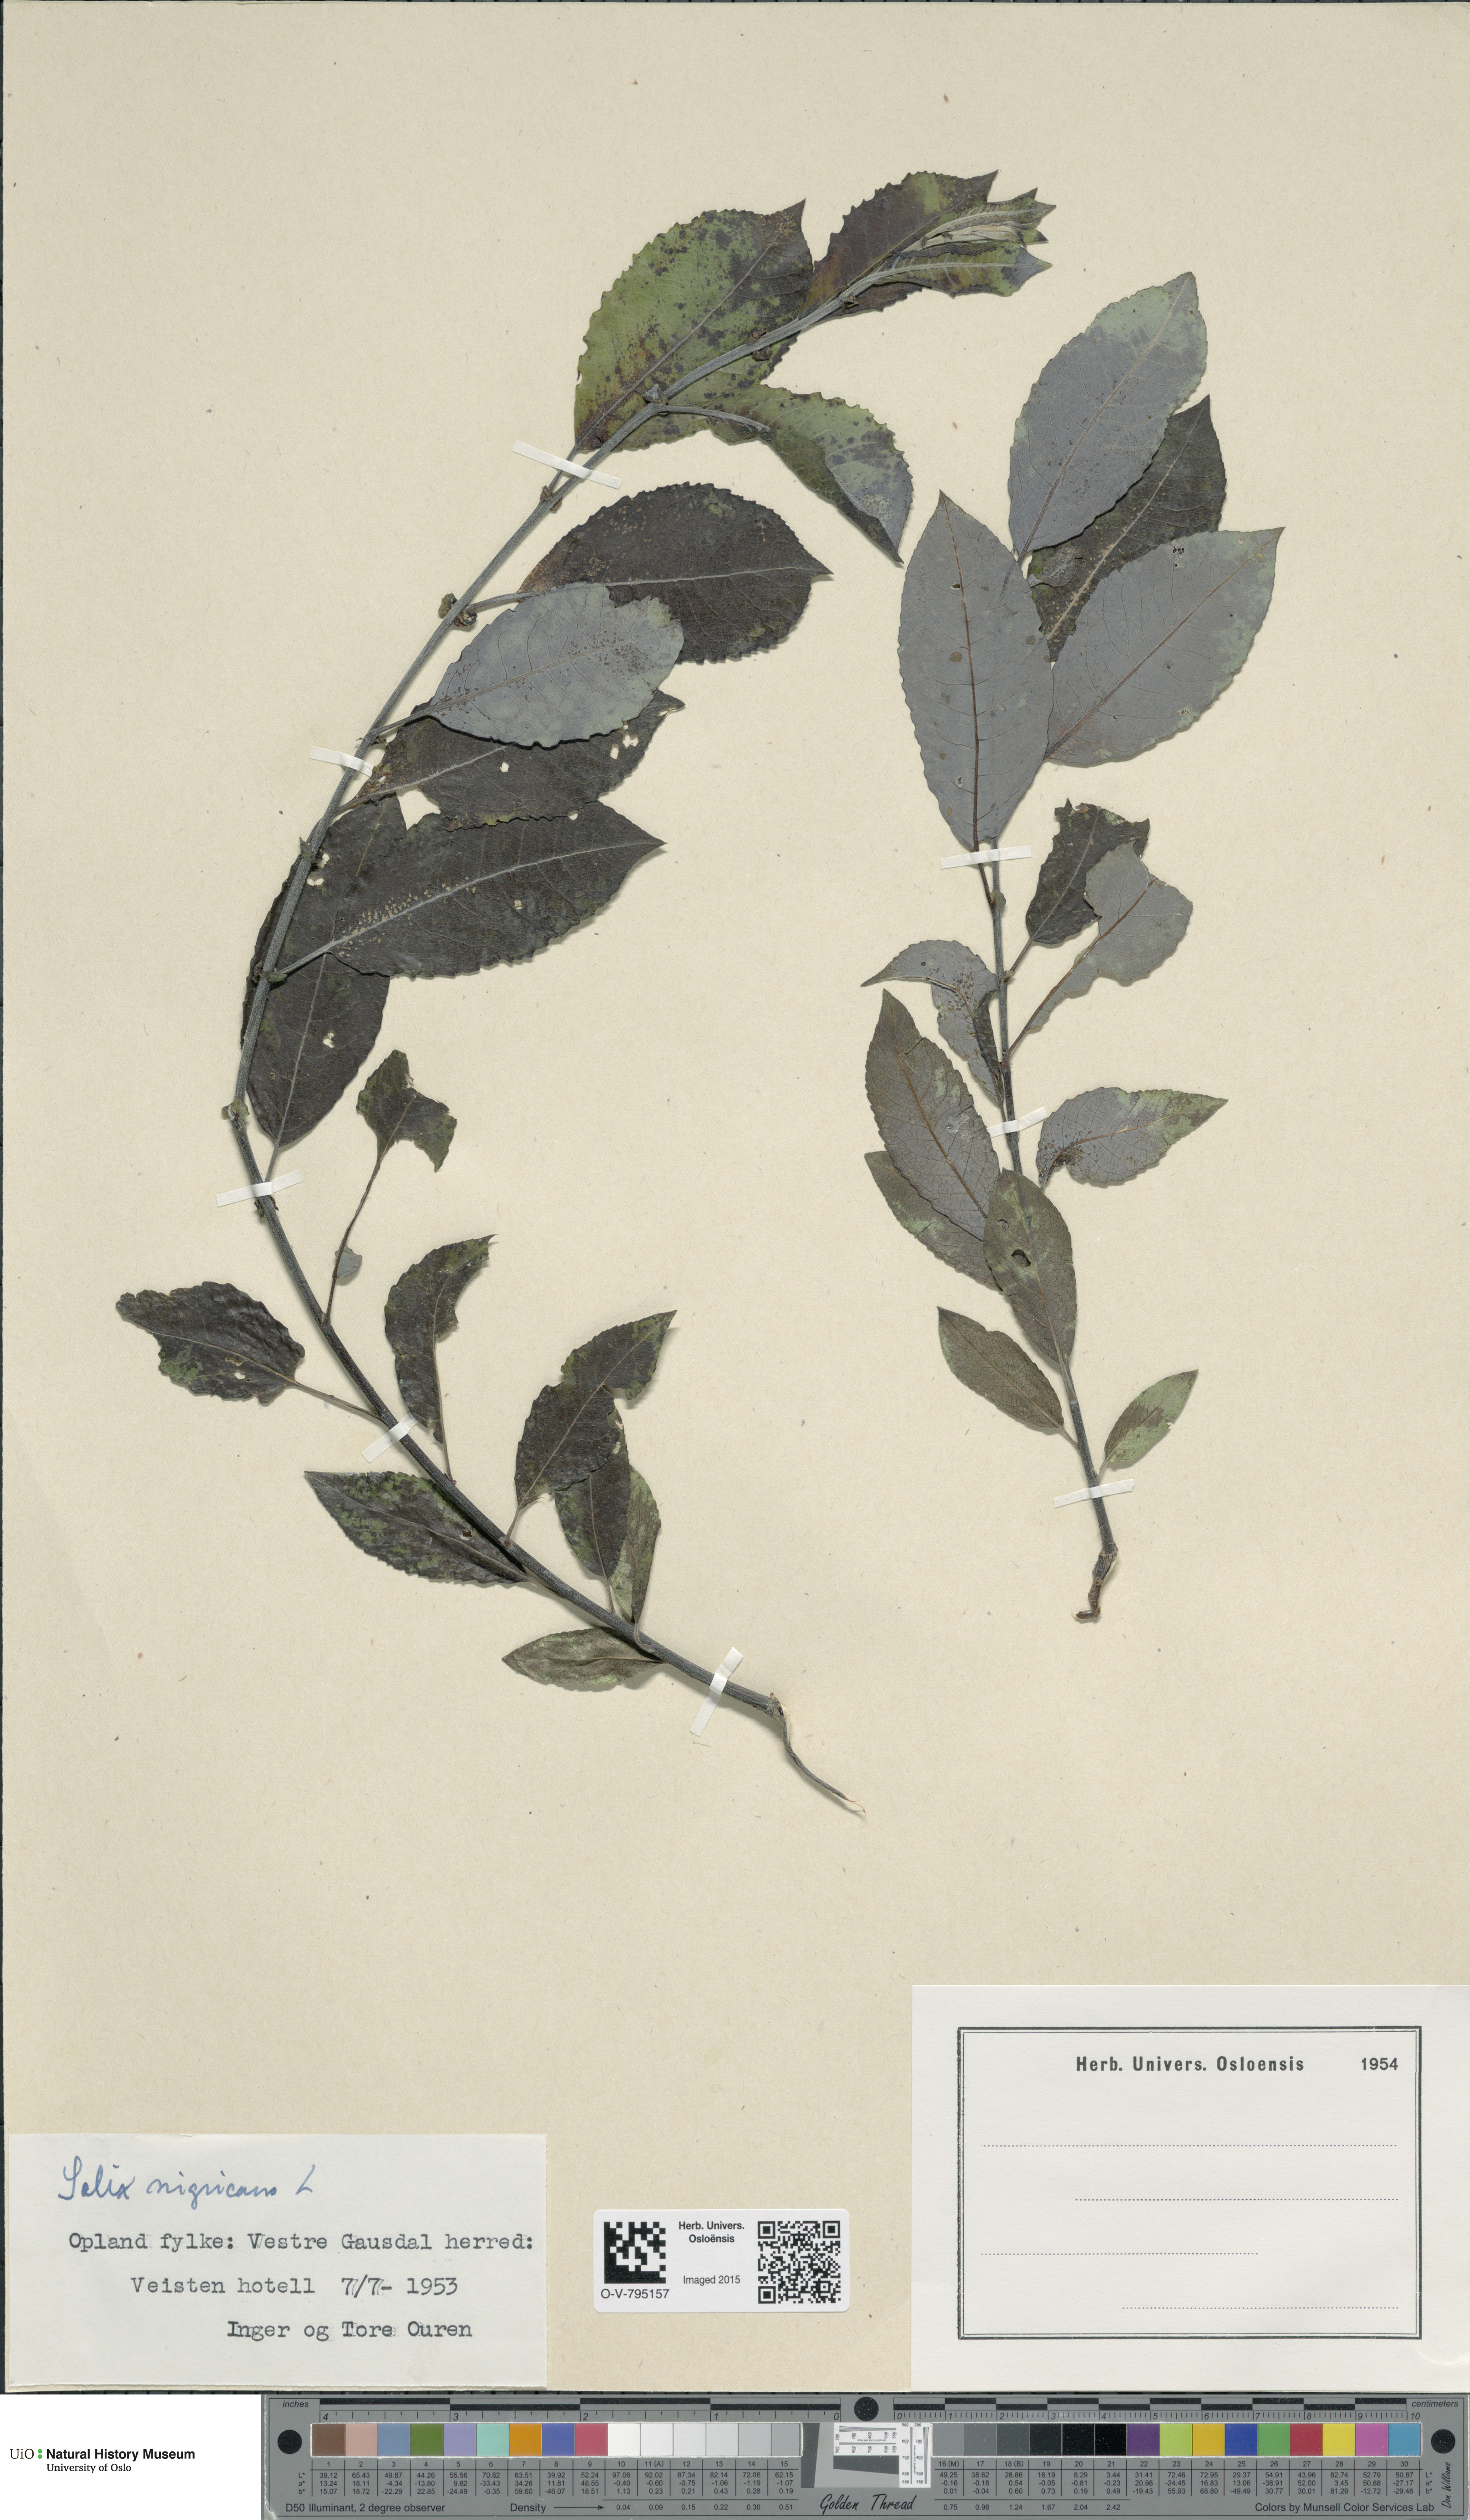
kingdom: Plantae
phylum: Tracheophyta
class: Magnoliopsida
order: Malpighiales
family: Salicaceae
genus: Salix
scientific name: Salix myrsinifolia
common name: Dark-leaved willow
